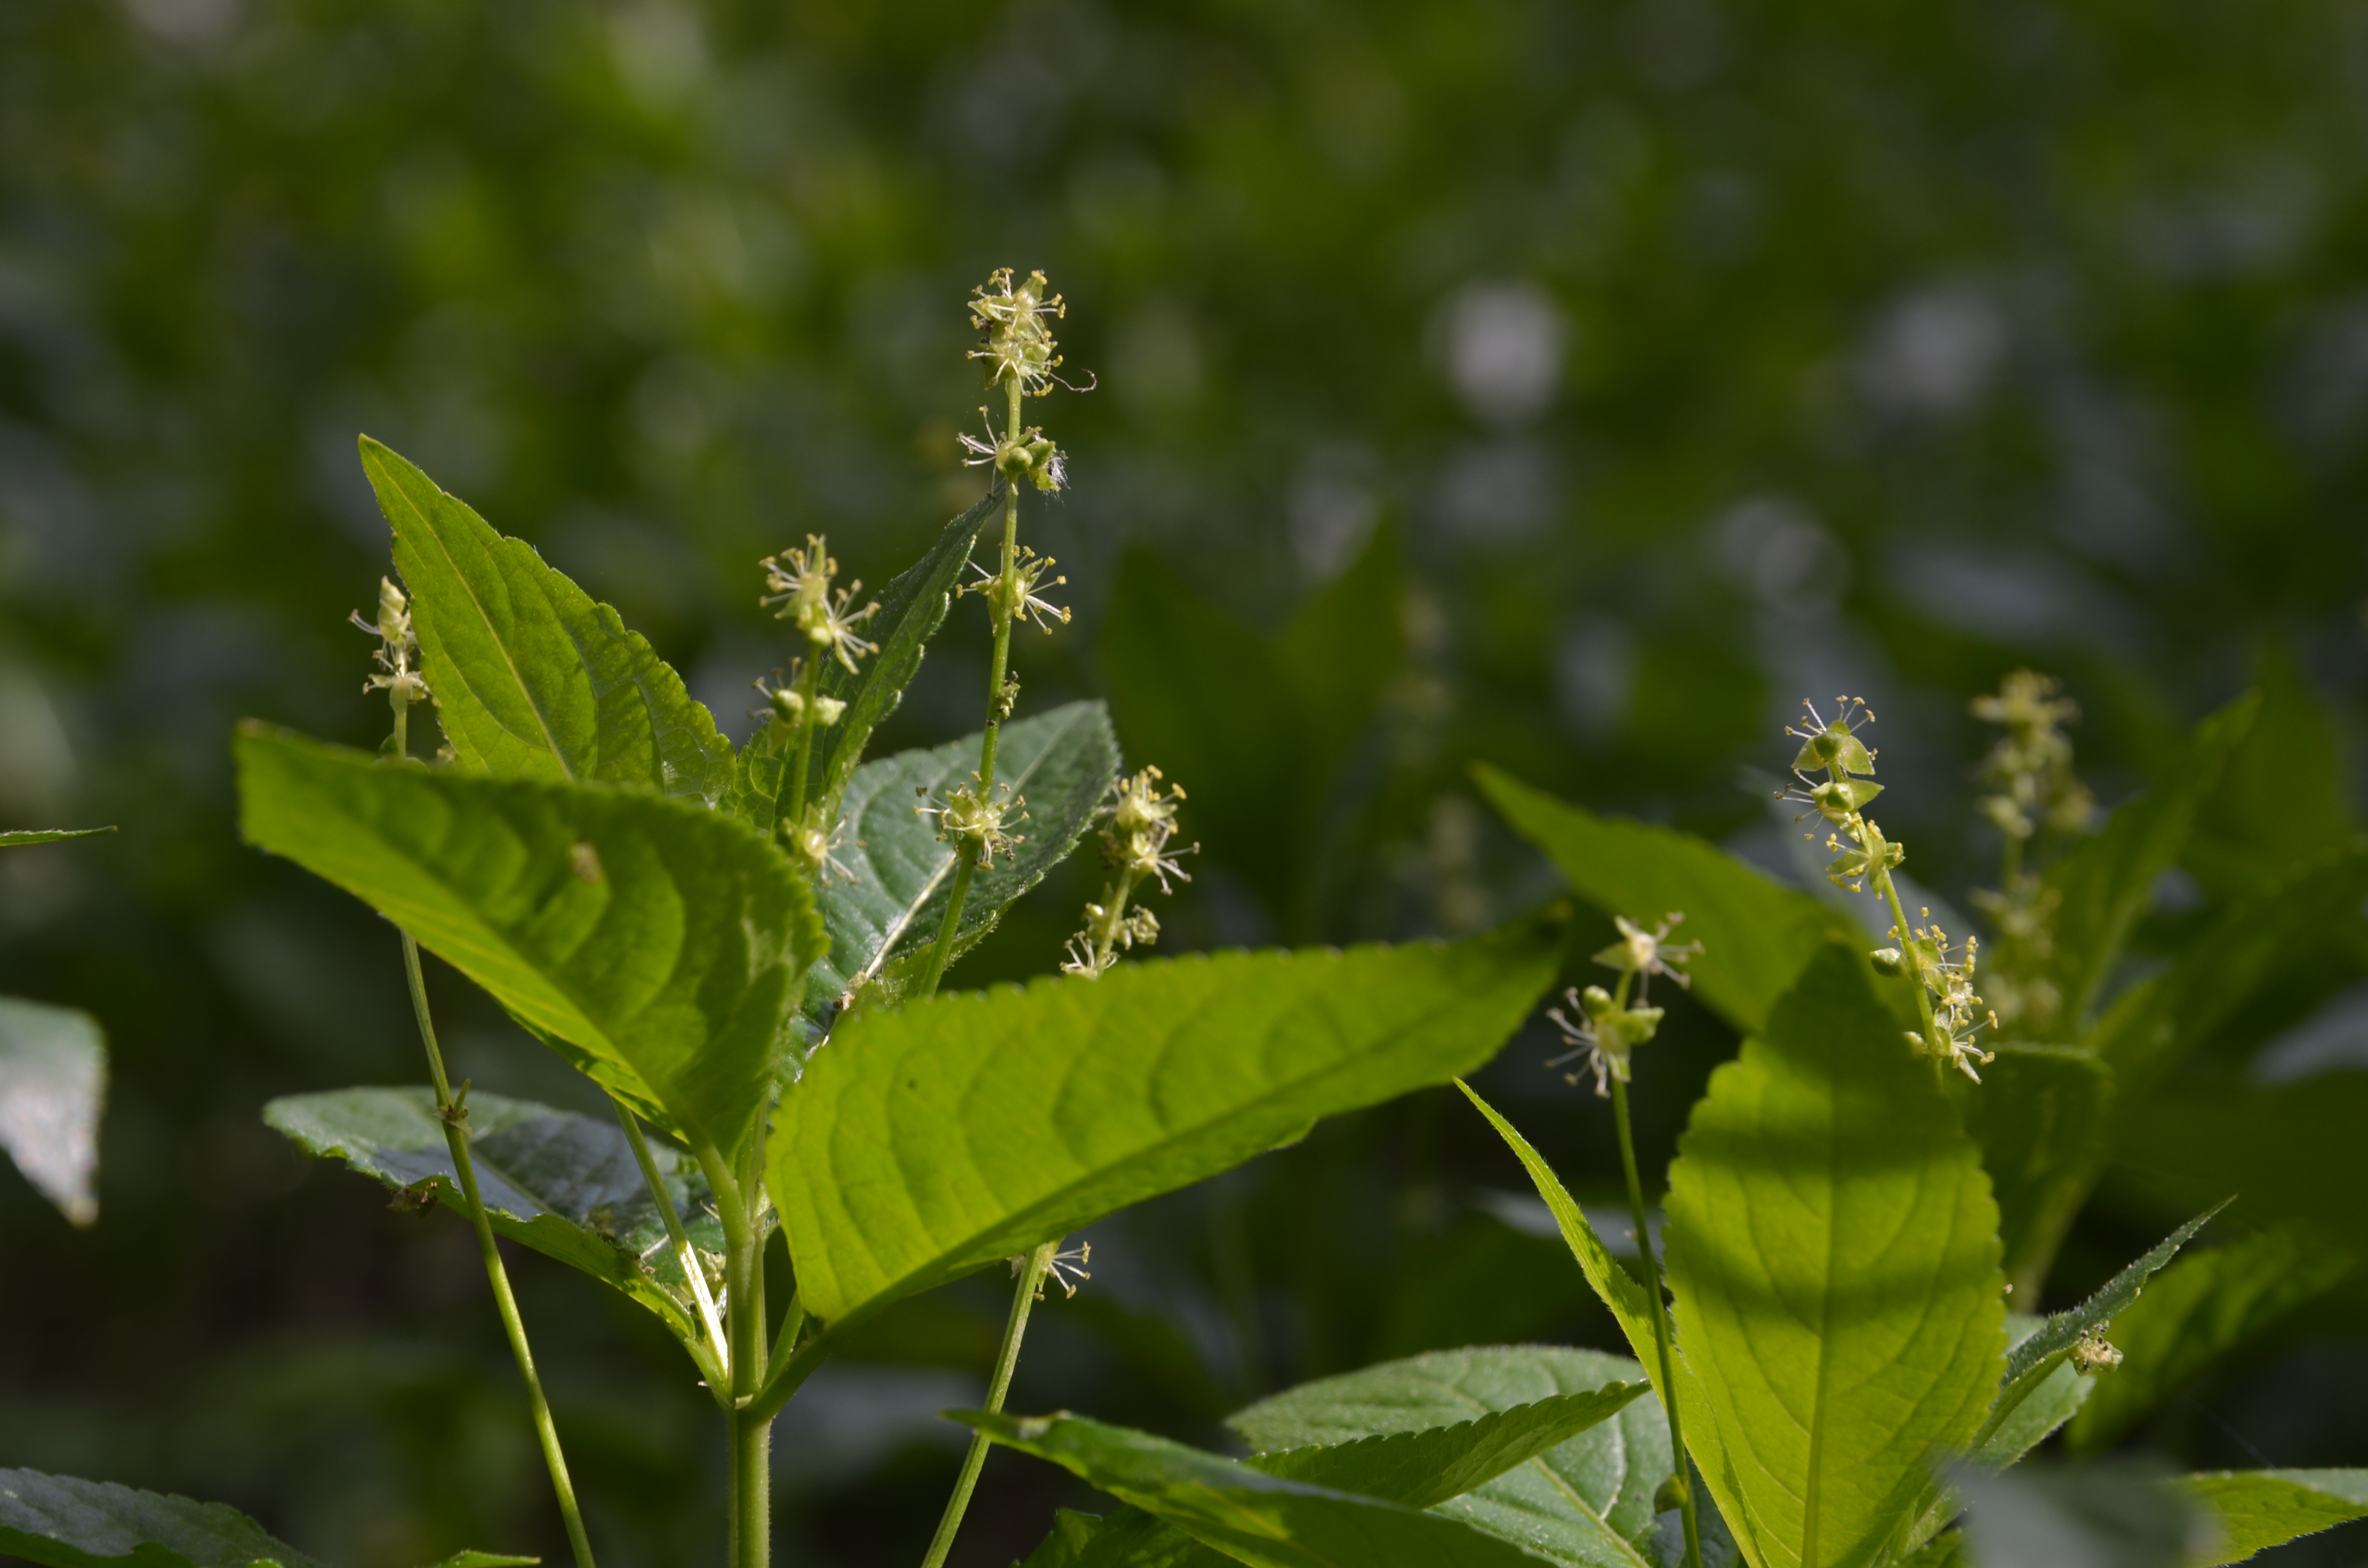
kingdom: Plantae
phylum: Tracheophyta
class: Magnoliopsida
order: Malpighiales
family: Euphorbiaceae
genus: Mercurialis
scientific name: Mercurialis perennis
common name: Dog mercury
